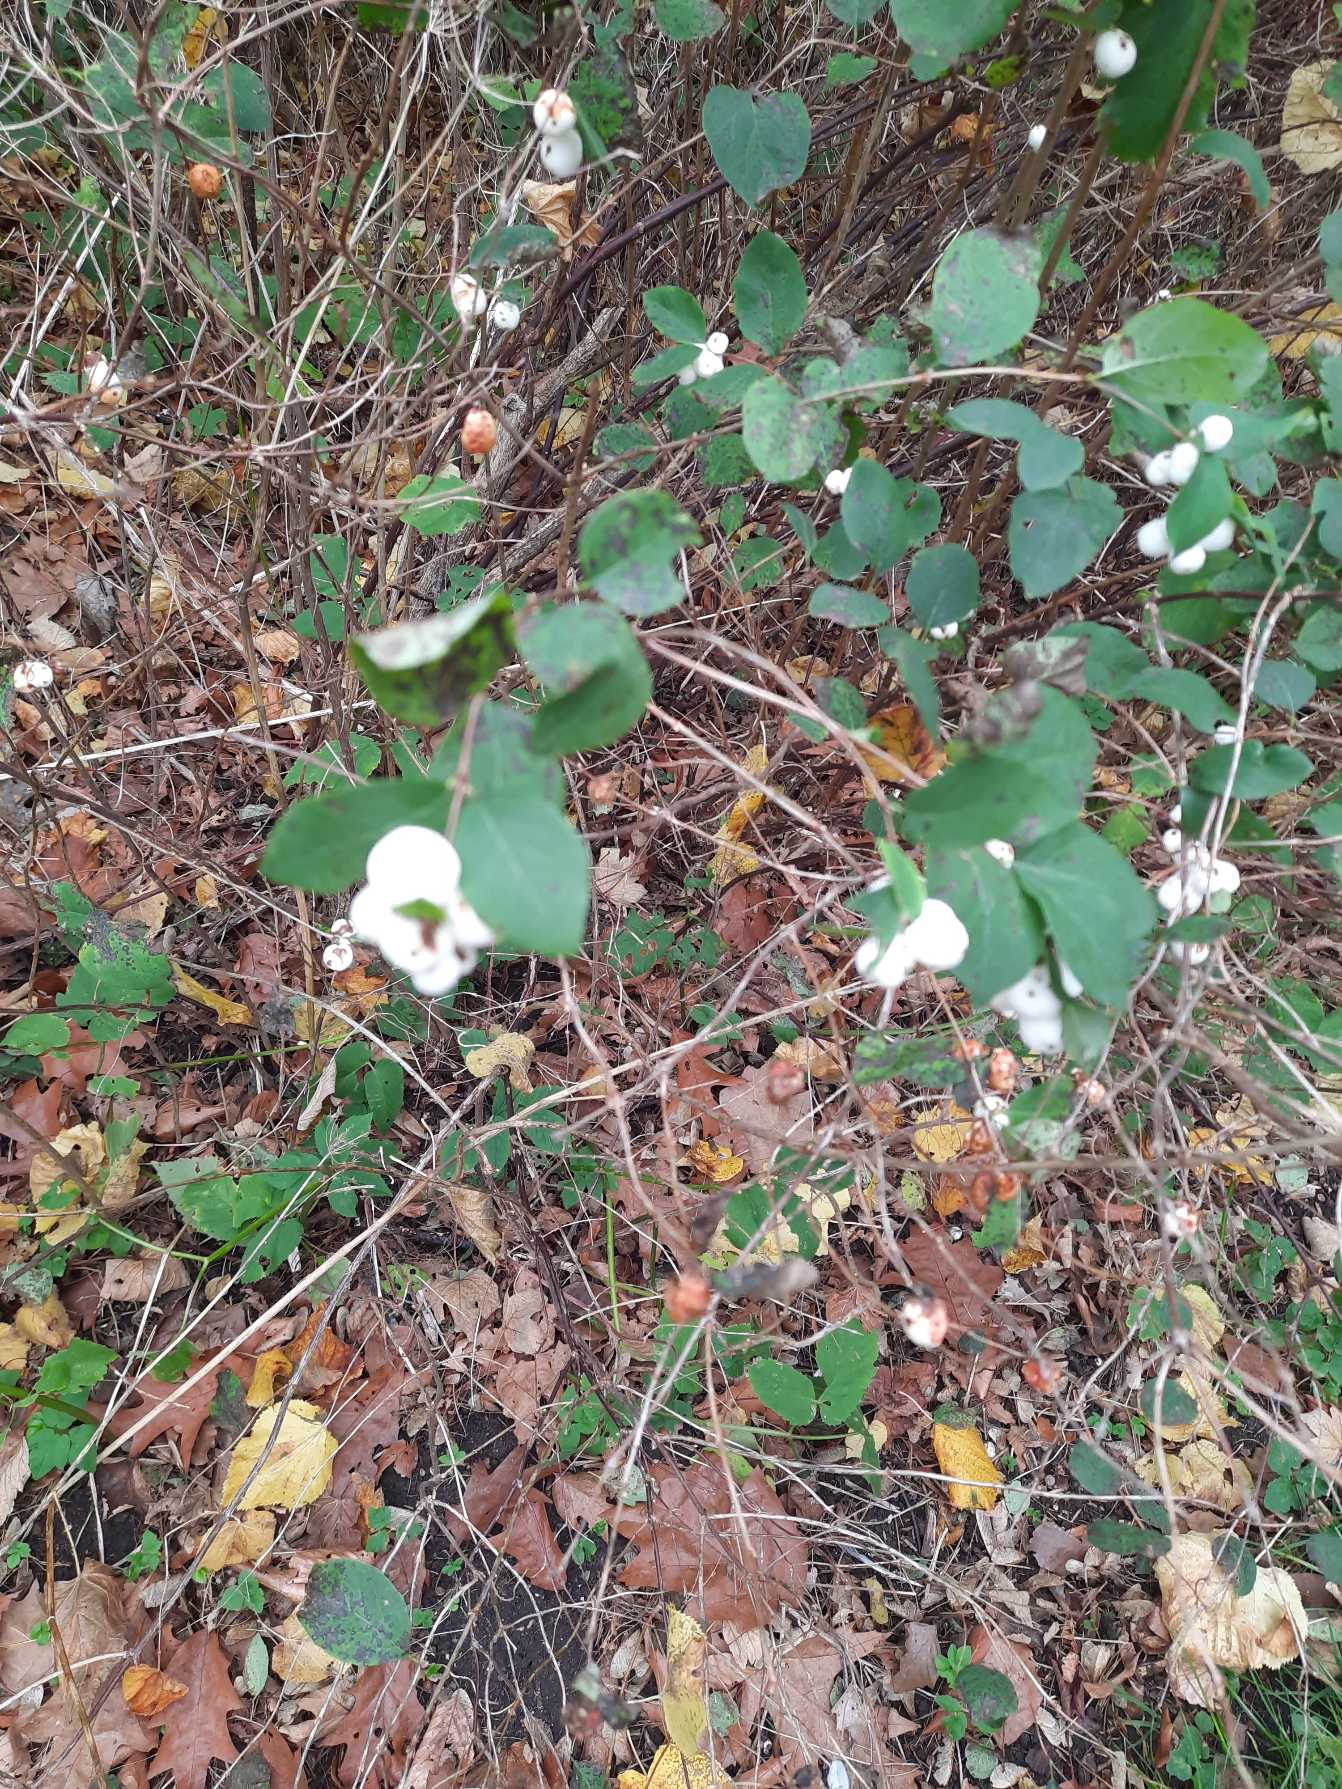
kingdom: Plantae
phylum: Tracheophyta
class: Magnoliopsida
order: Dipsacales
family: Caprifoliaceae
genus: Symphoricarpos
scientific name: Symphoricarpos albus
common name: Almindelig snebær
